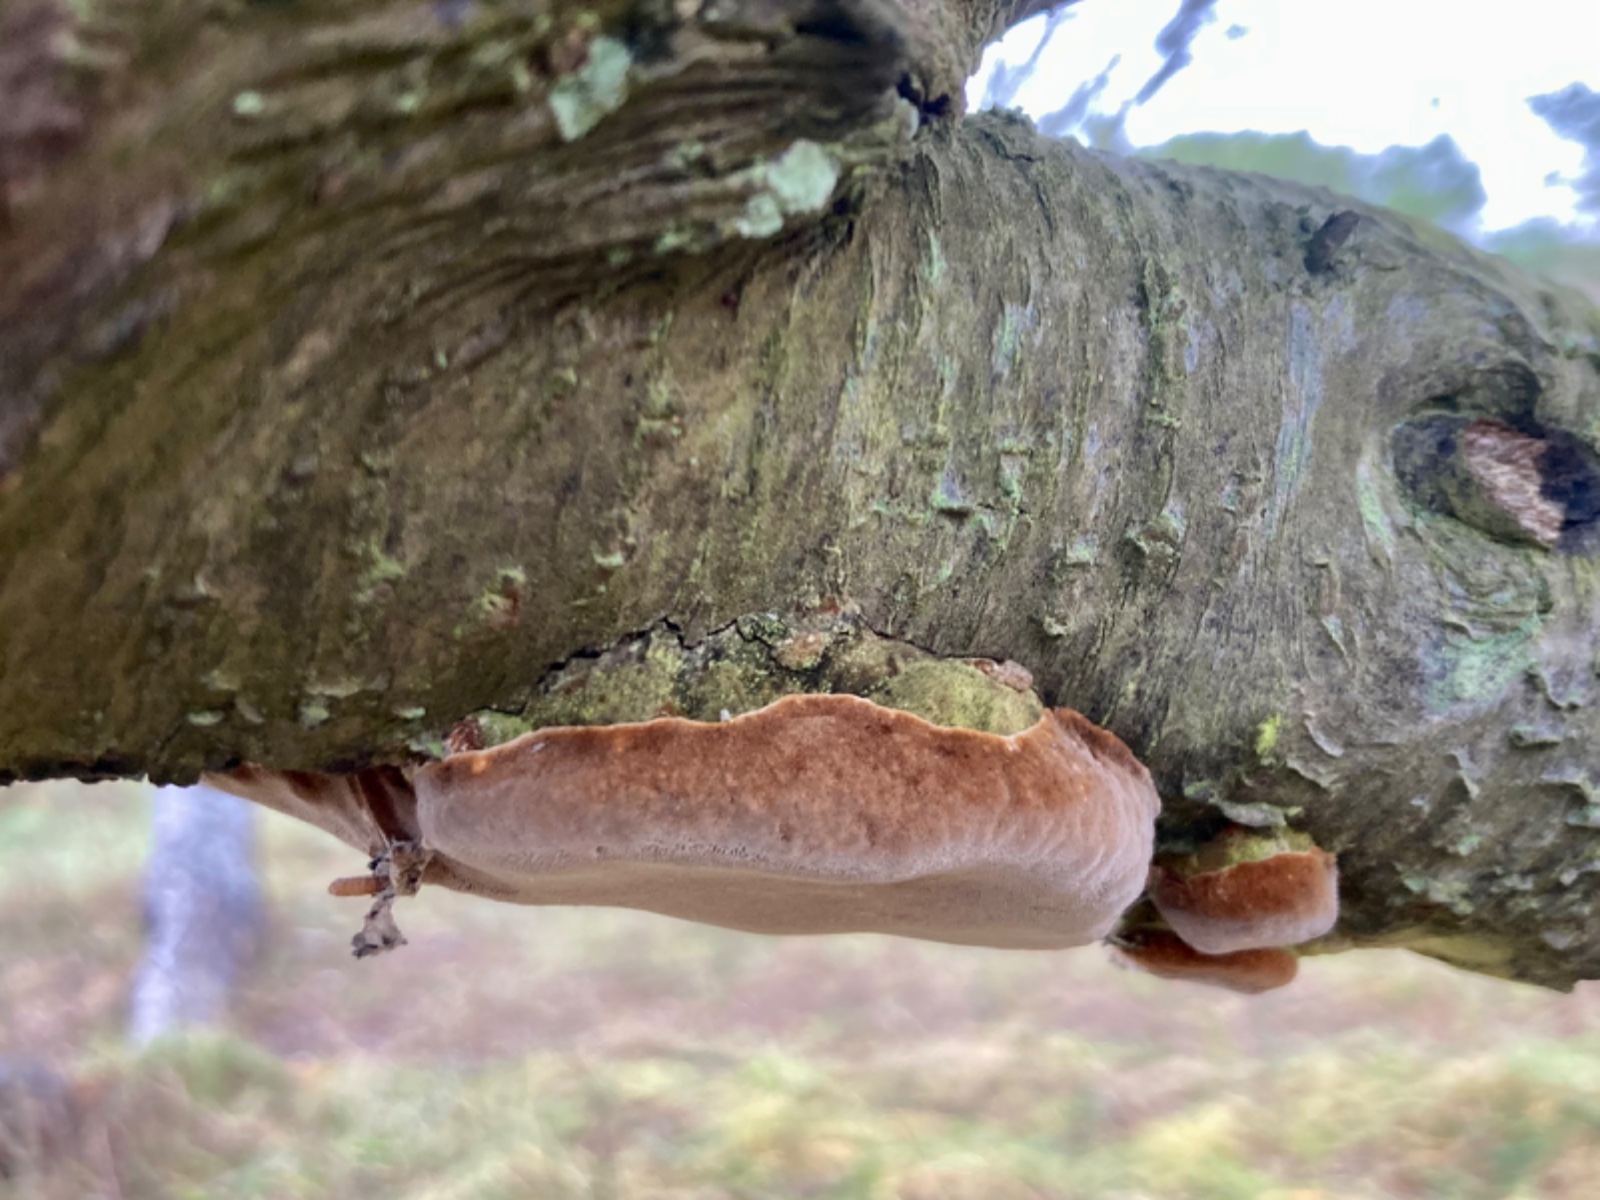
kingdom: Fungi
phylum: Basidiomycota
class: Agaricomycetes
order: Hymenochaetales
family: Hymenochaetaceae
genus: Phellinus
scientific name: Phellinus pomaceus
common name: blomme-ildporesvamp
